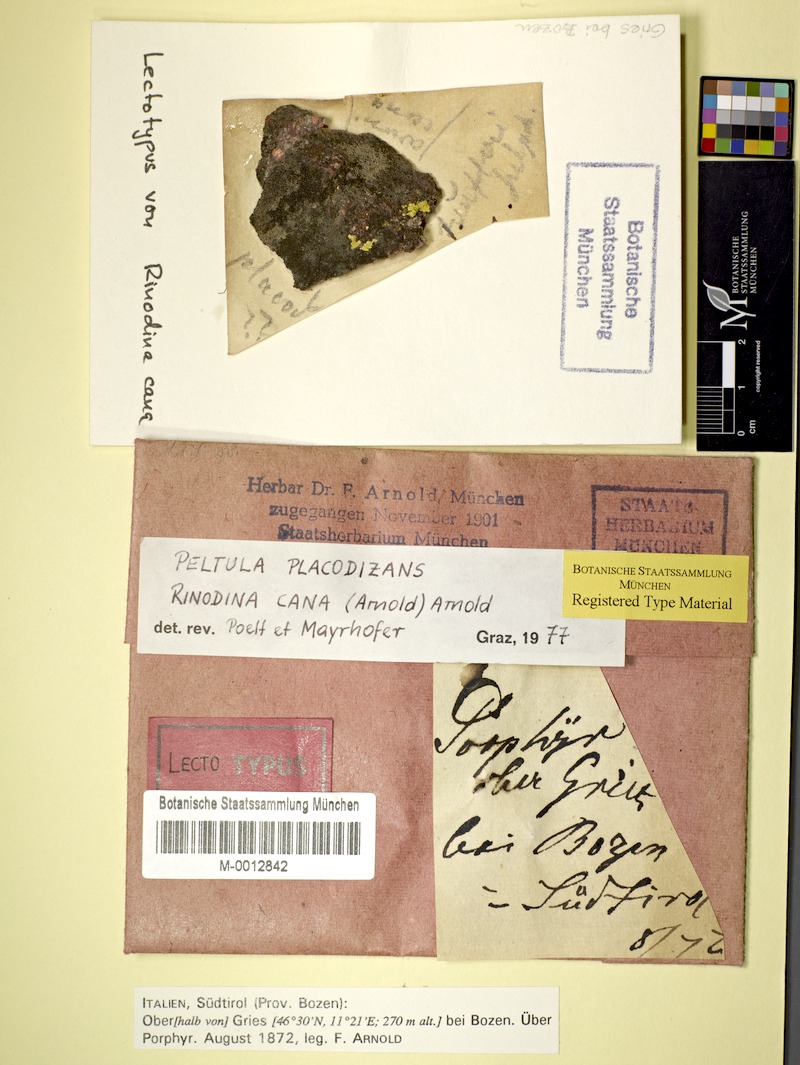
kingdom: Fungi
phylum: Ascomycota
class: Lecanoromycetes
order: Caliciales
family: Physciaceae
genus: Rinodina
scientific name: Rinodina cana
